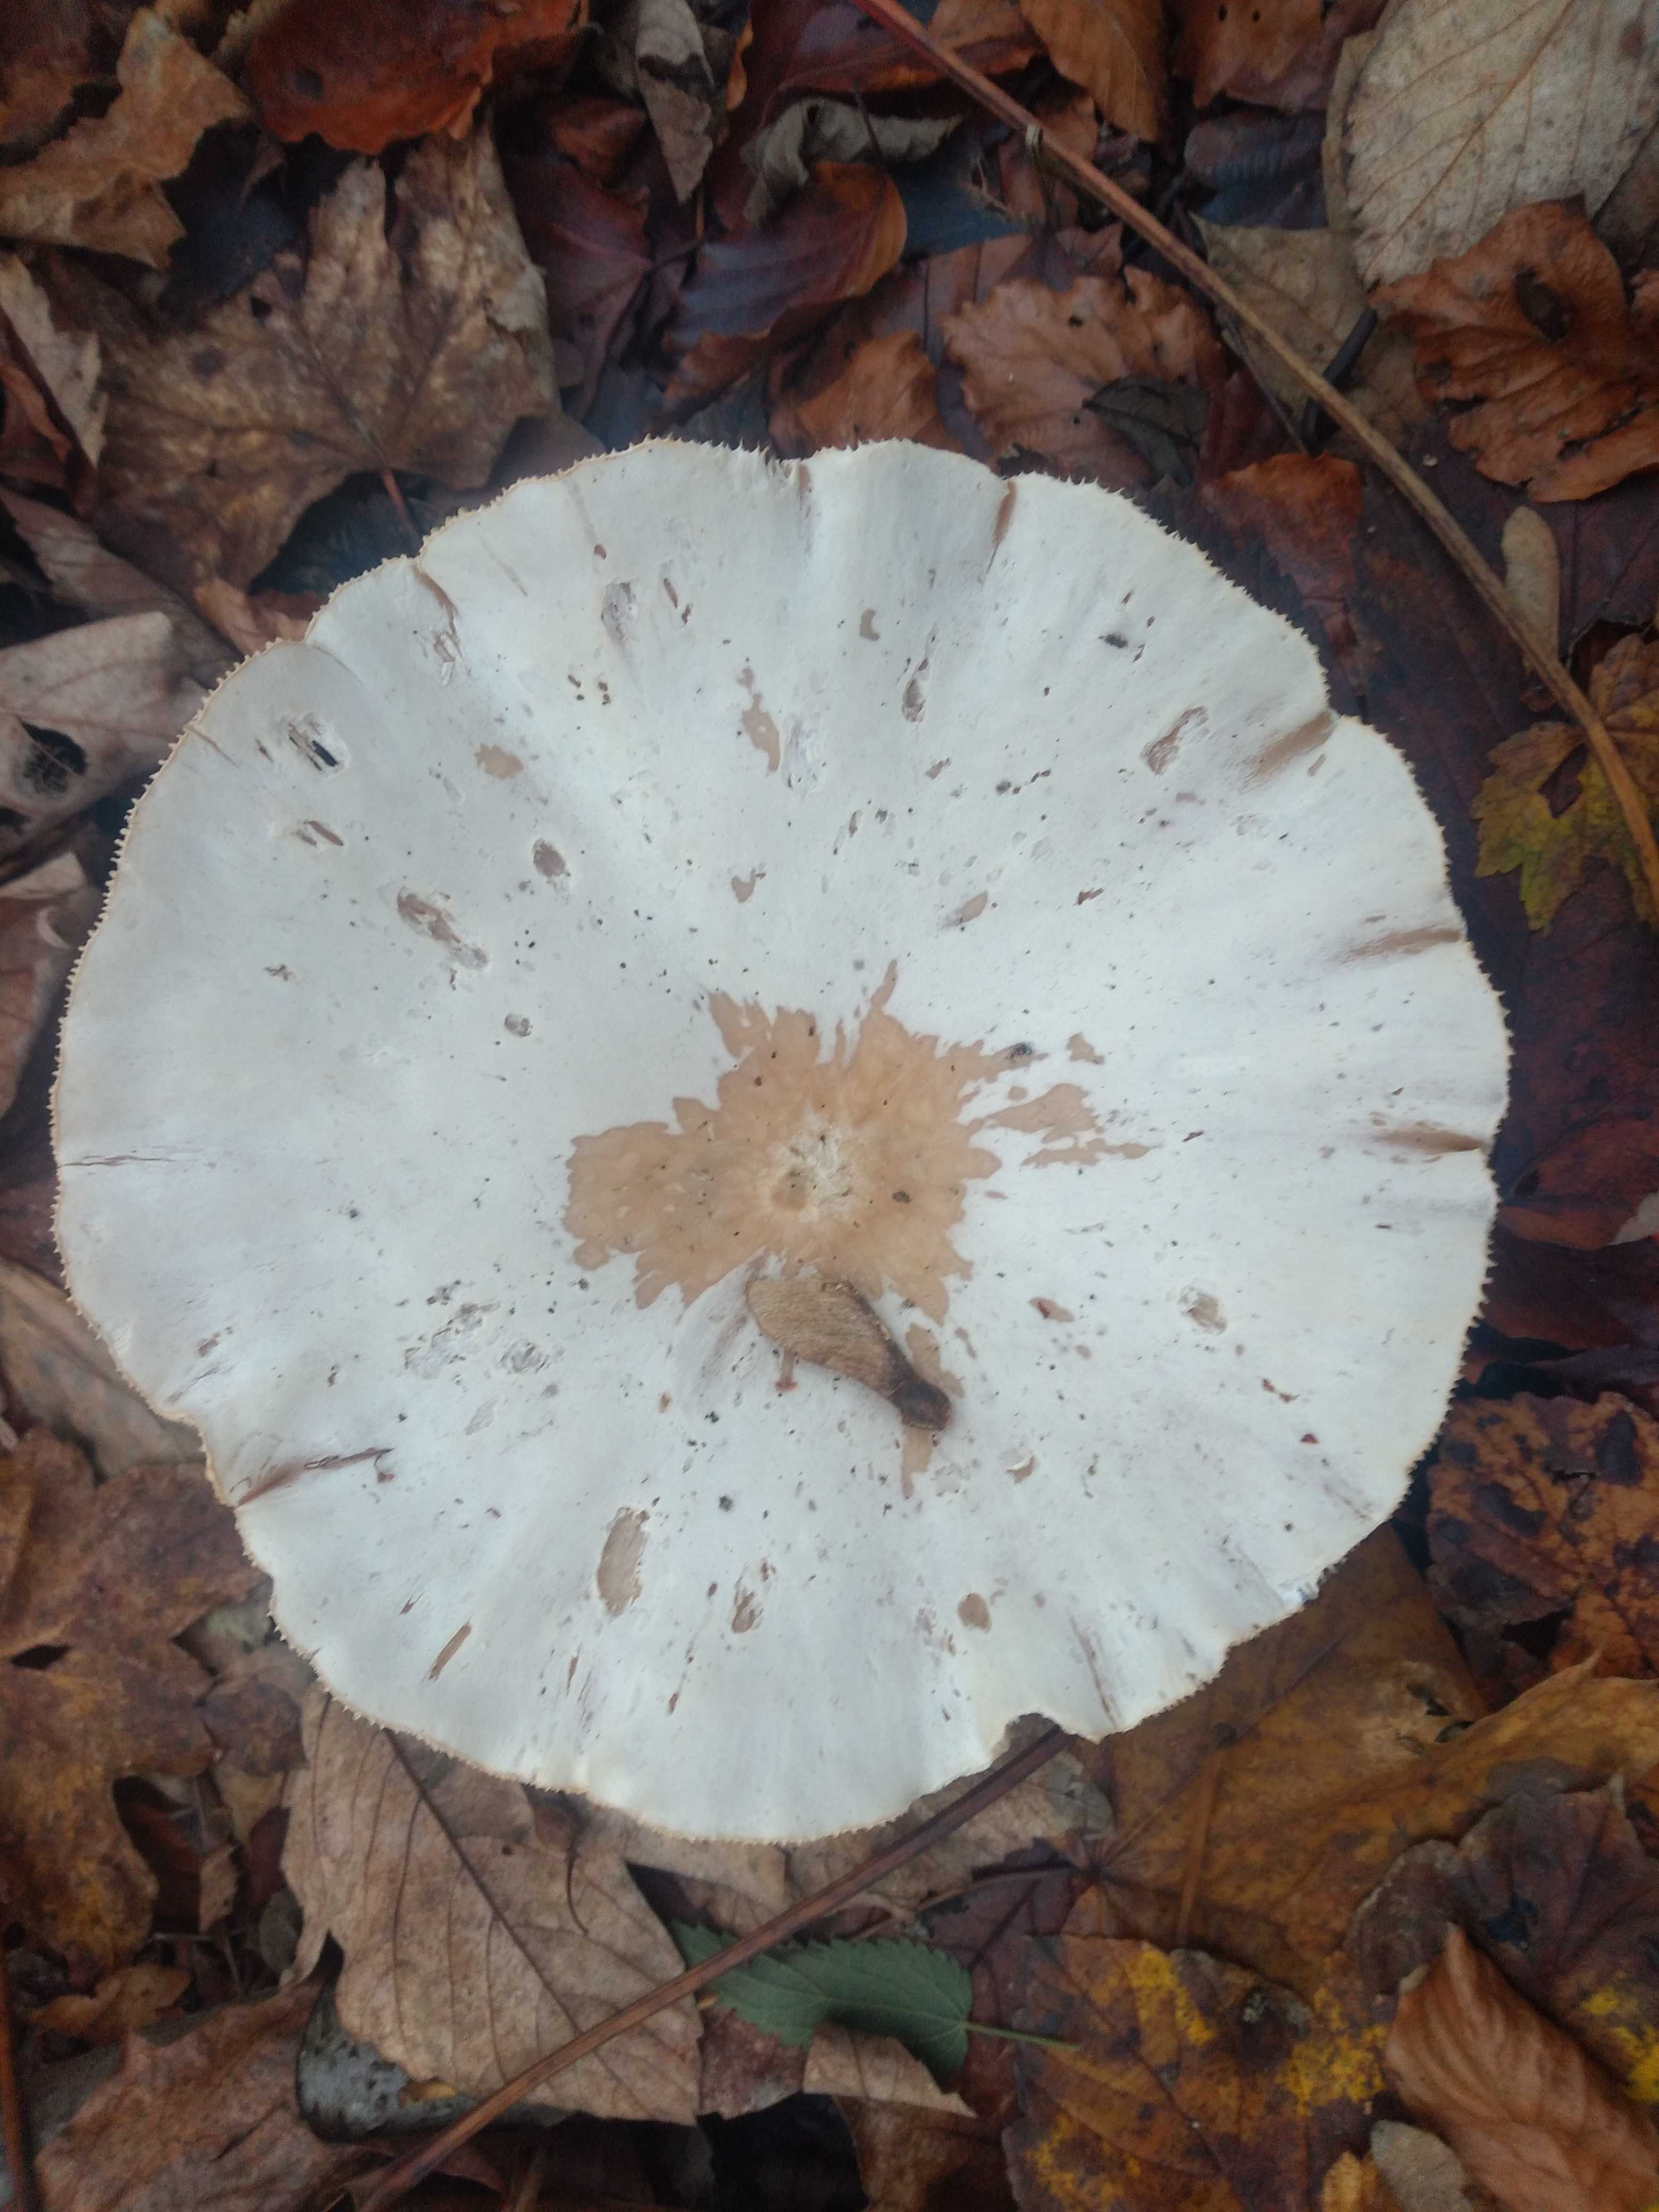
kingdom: Fungi
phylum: Basidiomycota
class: Agaricomycetes
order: Agaricales
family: Tricholomataceae
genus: Clitocybe
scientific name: Clitocybe
